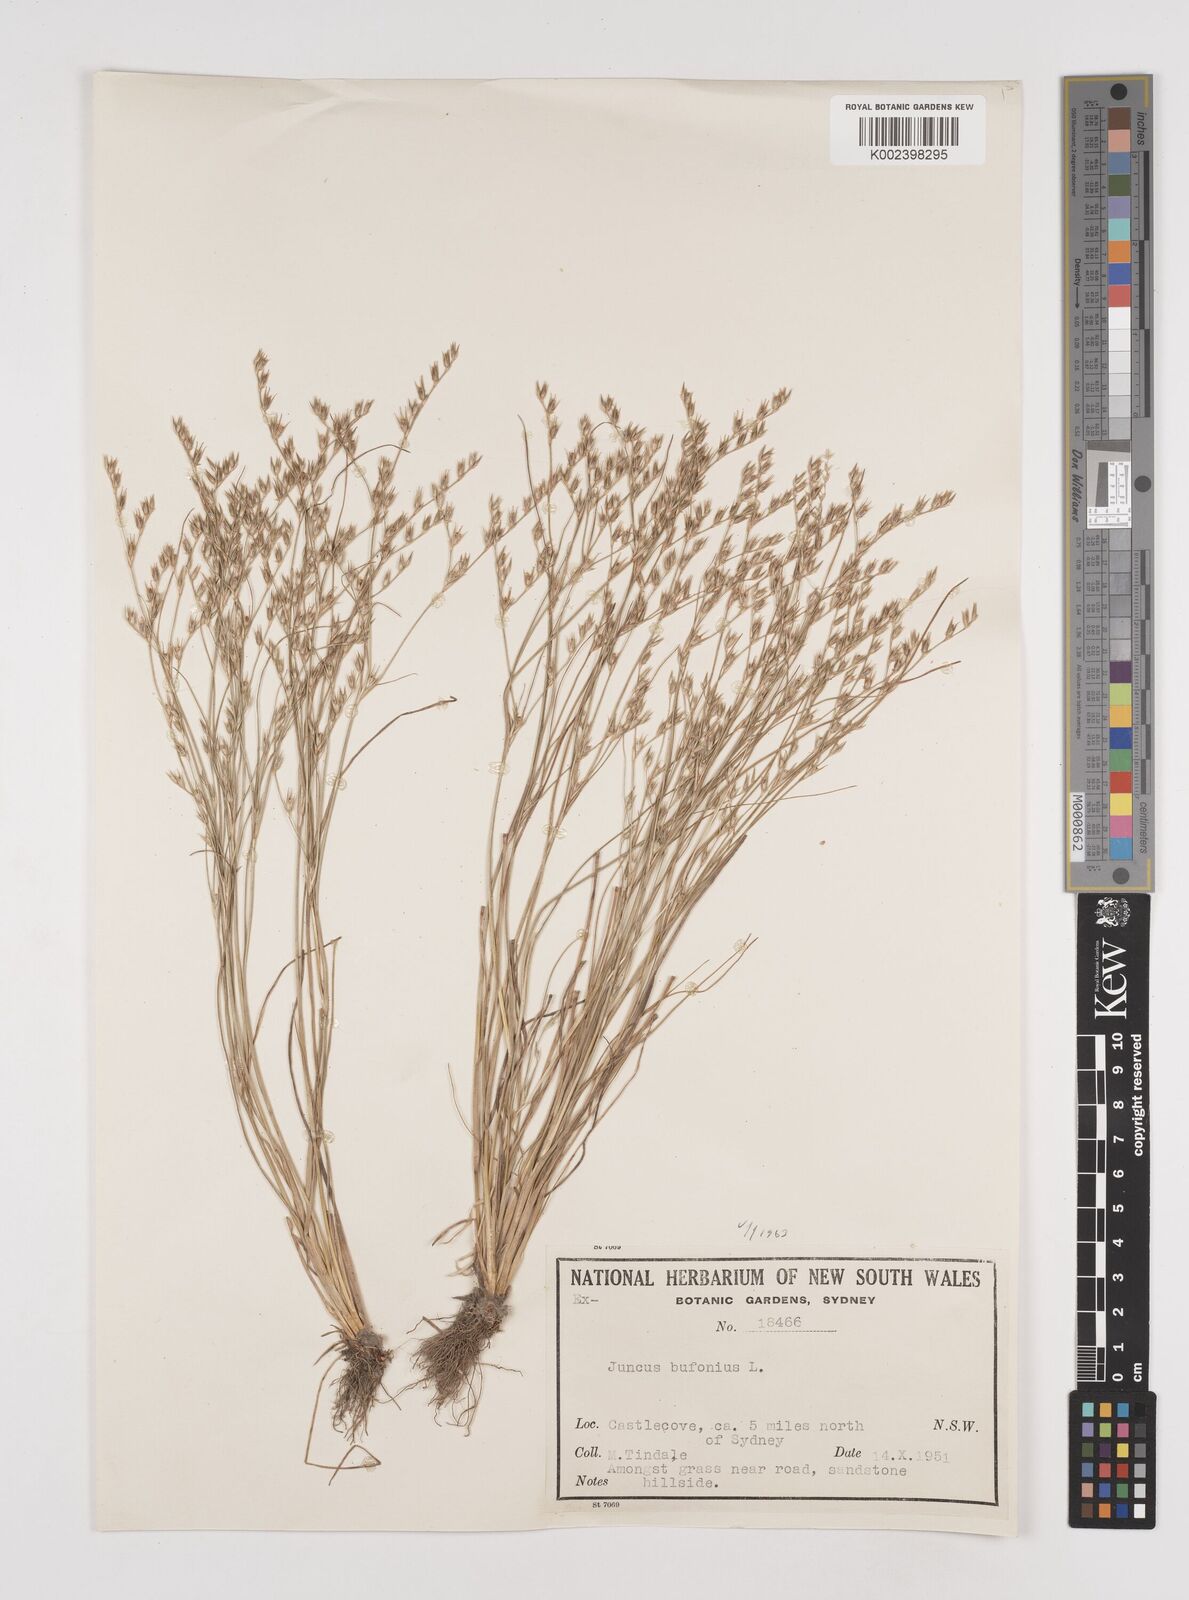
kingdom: Plantae
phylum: Tracheophyta
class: Liliopsida
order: Poales
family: Juncaceae
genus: Juncus
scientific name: Juncus bufonius
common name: Toad rush
